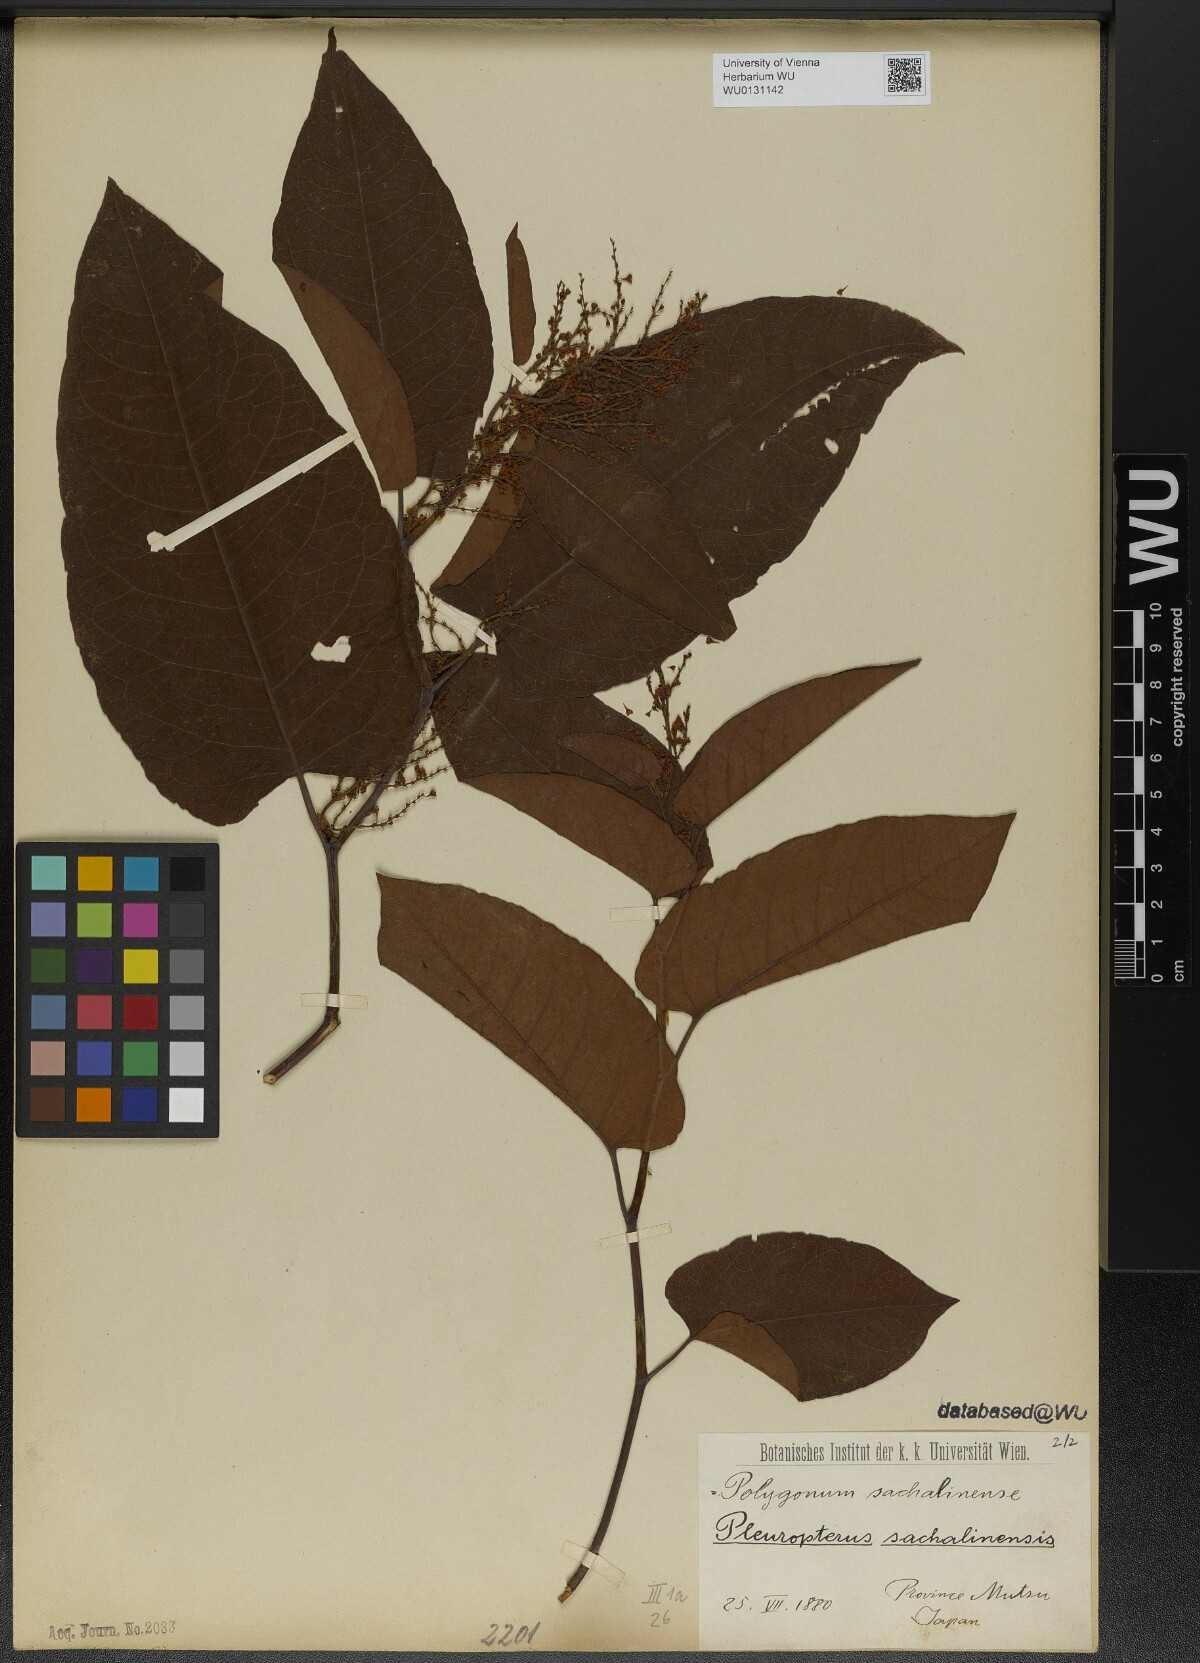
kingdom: Plantae
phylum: Tracheophyta
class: Magnoliopsida
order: Caryophyllales
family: Polygonaceae
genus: Reynoutria
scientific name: Reynoutria sachalinensis
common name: Giant knotweed
